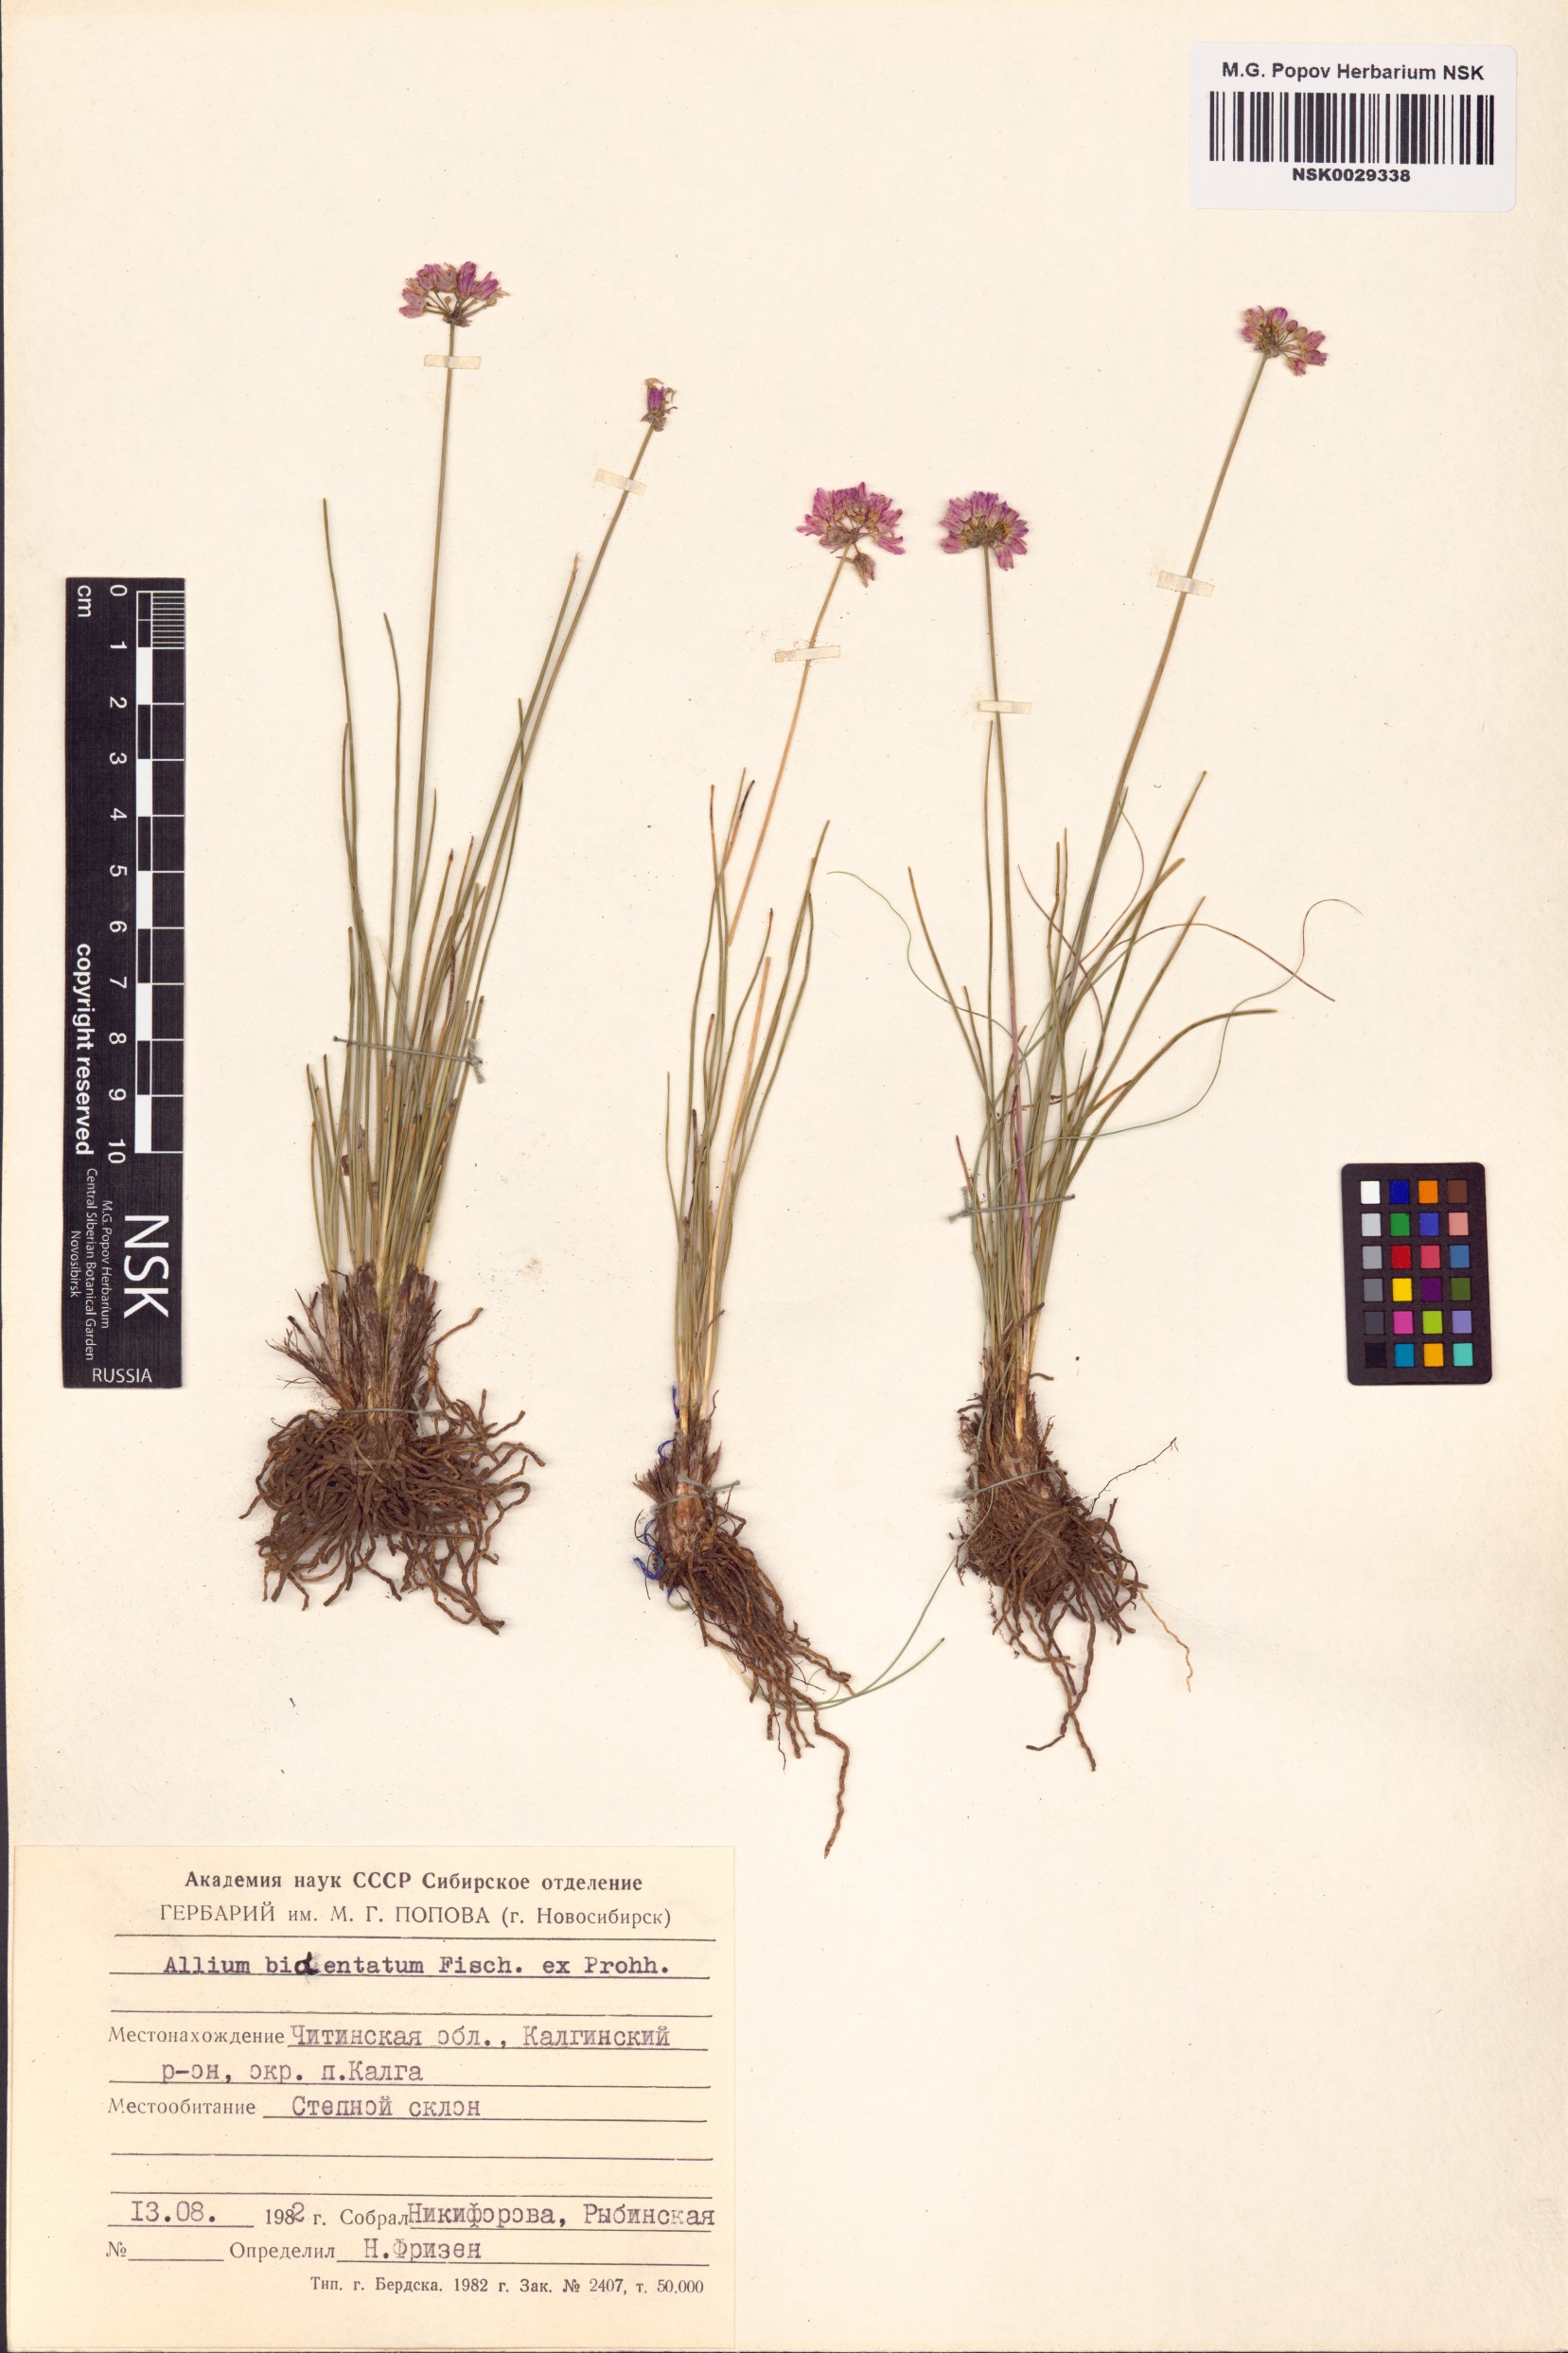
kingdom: Plantae
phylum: Tracheophyta
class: Liliopsida
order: Asparagales
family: Amaryllidaceae
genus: Allium
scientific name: Allium bidentatum
